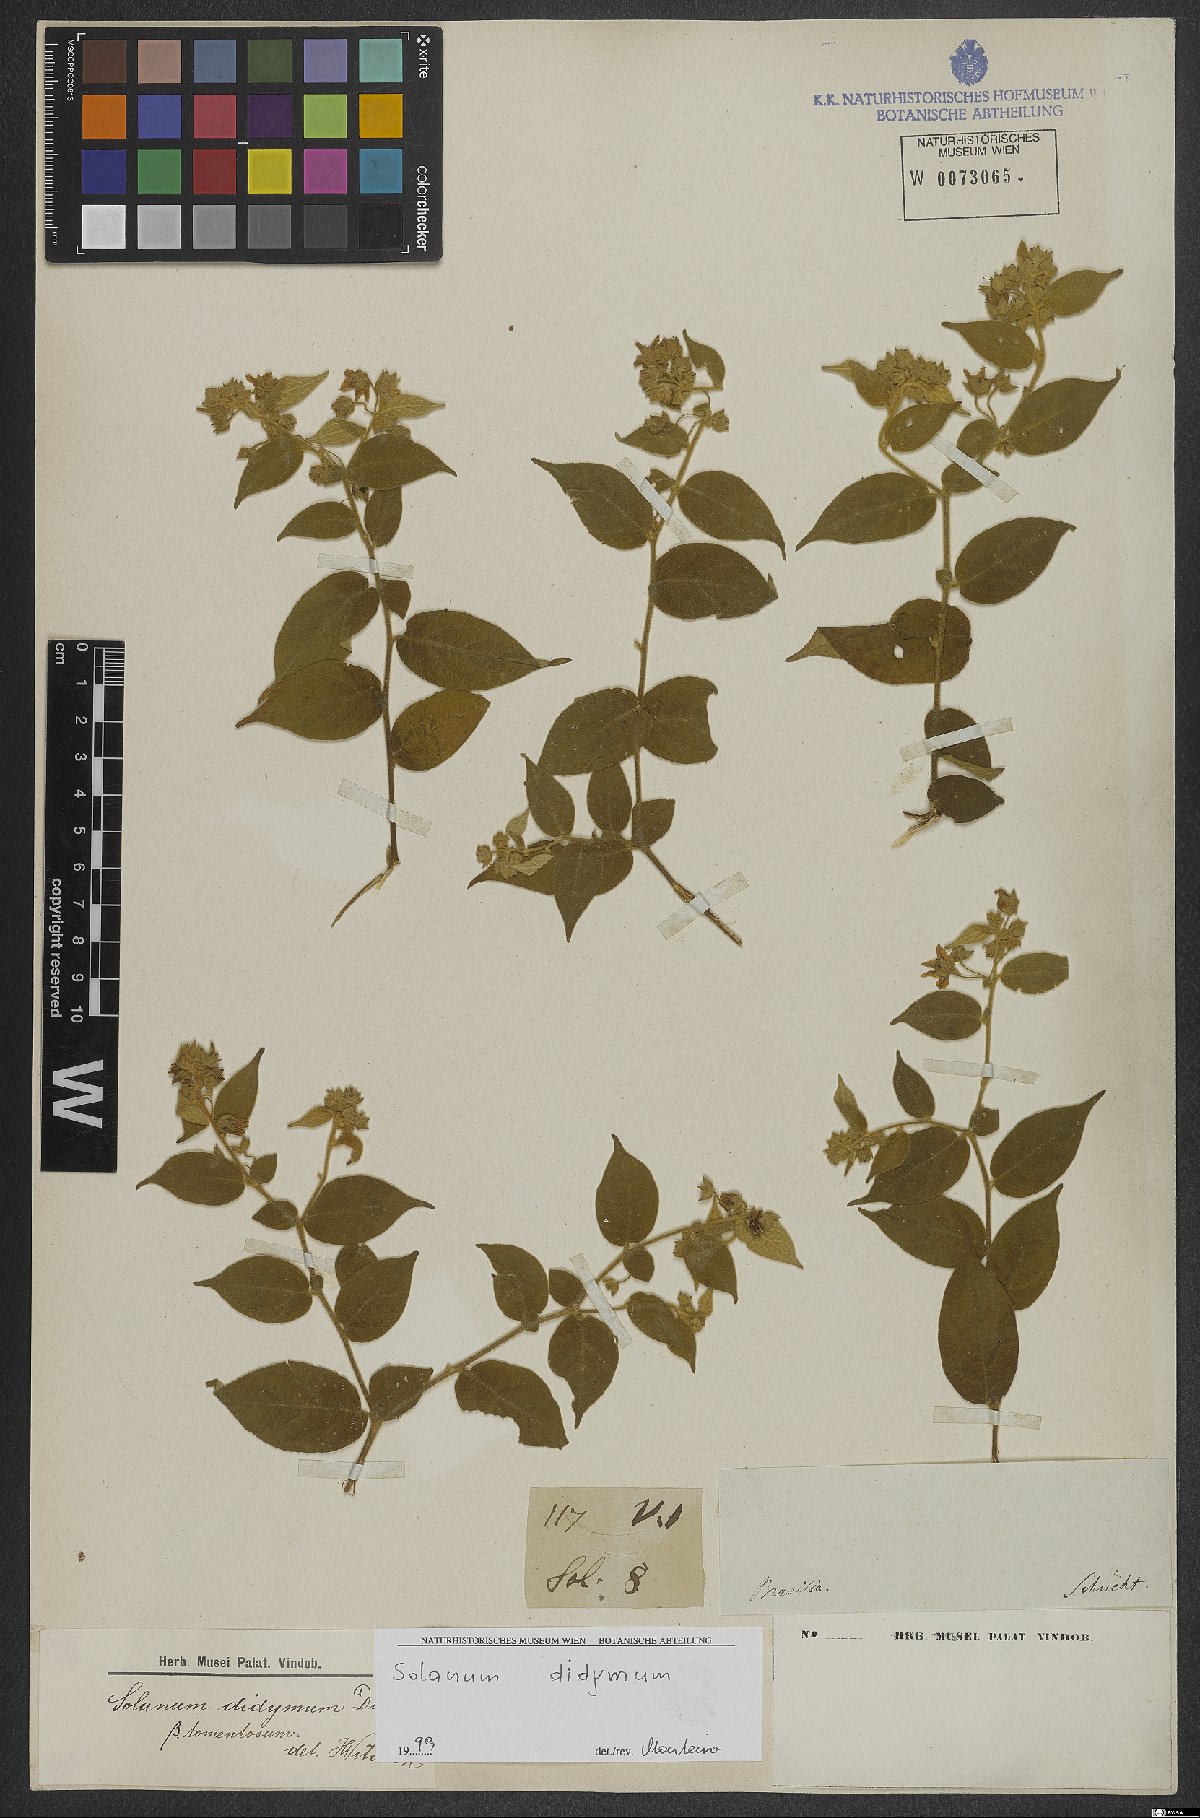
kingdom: Plantae
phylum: Tracheophyta
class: Magnoliopsida
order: Solanales
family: Solanaceae
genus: Solanum
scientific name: Solanum didymum
